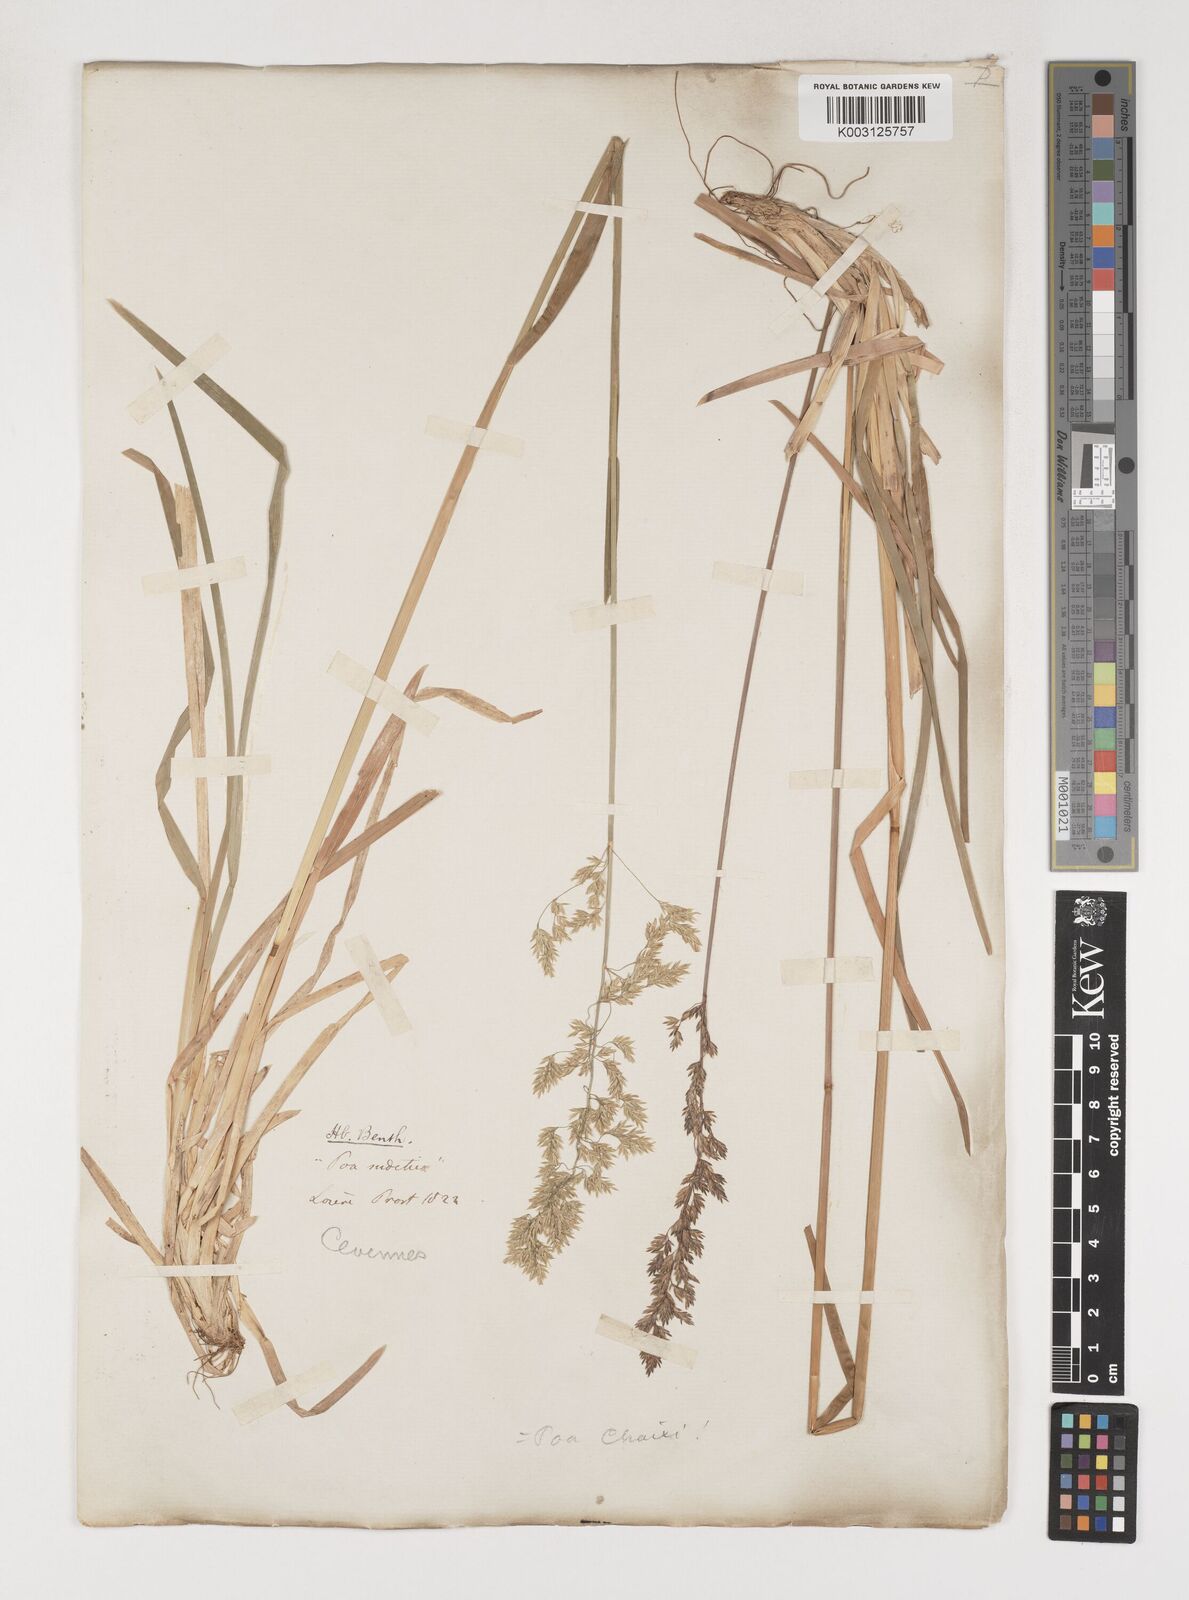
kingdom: Plantae
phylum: Tracheophyta
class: Liliopsida
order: Poales
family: Poaceae
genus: Poa
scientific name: Poa chaixii
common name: Broad-leaved meadow-grass
